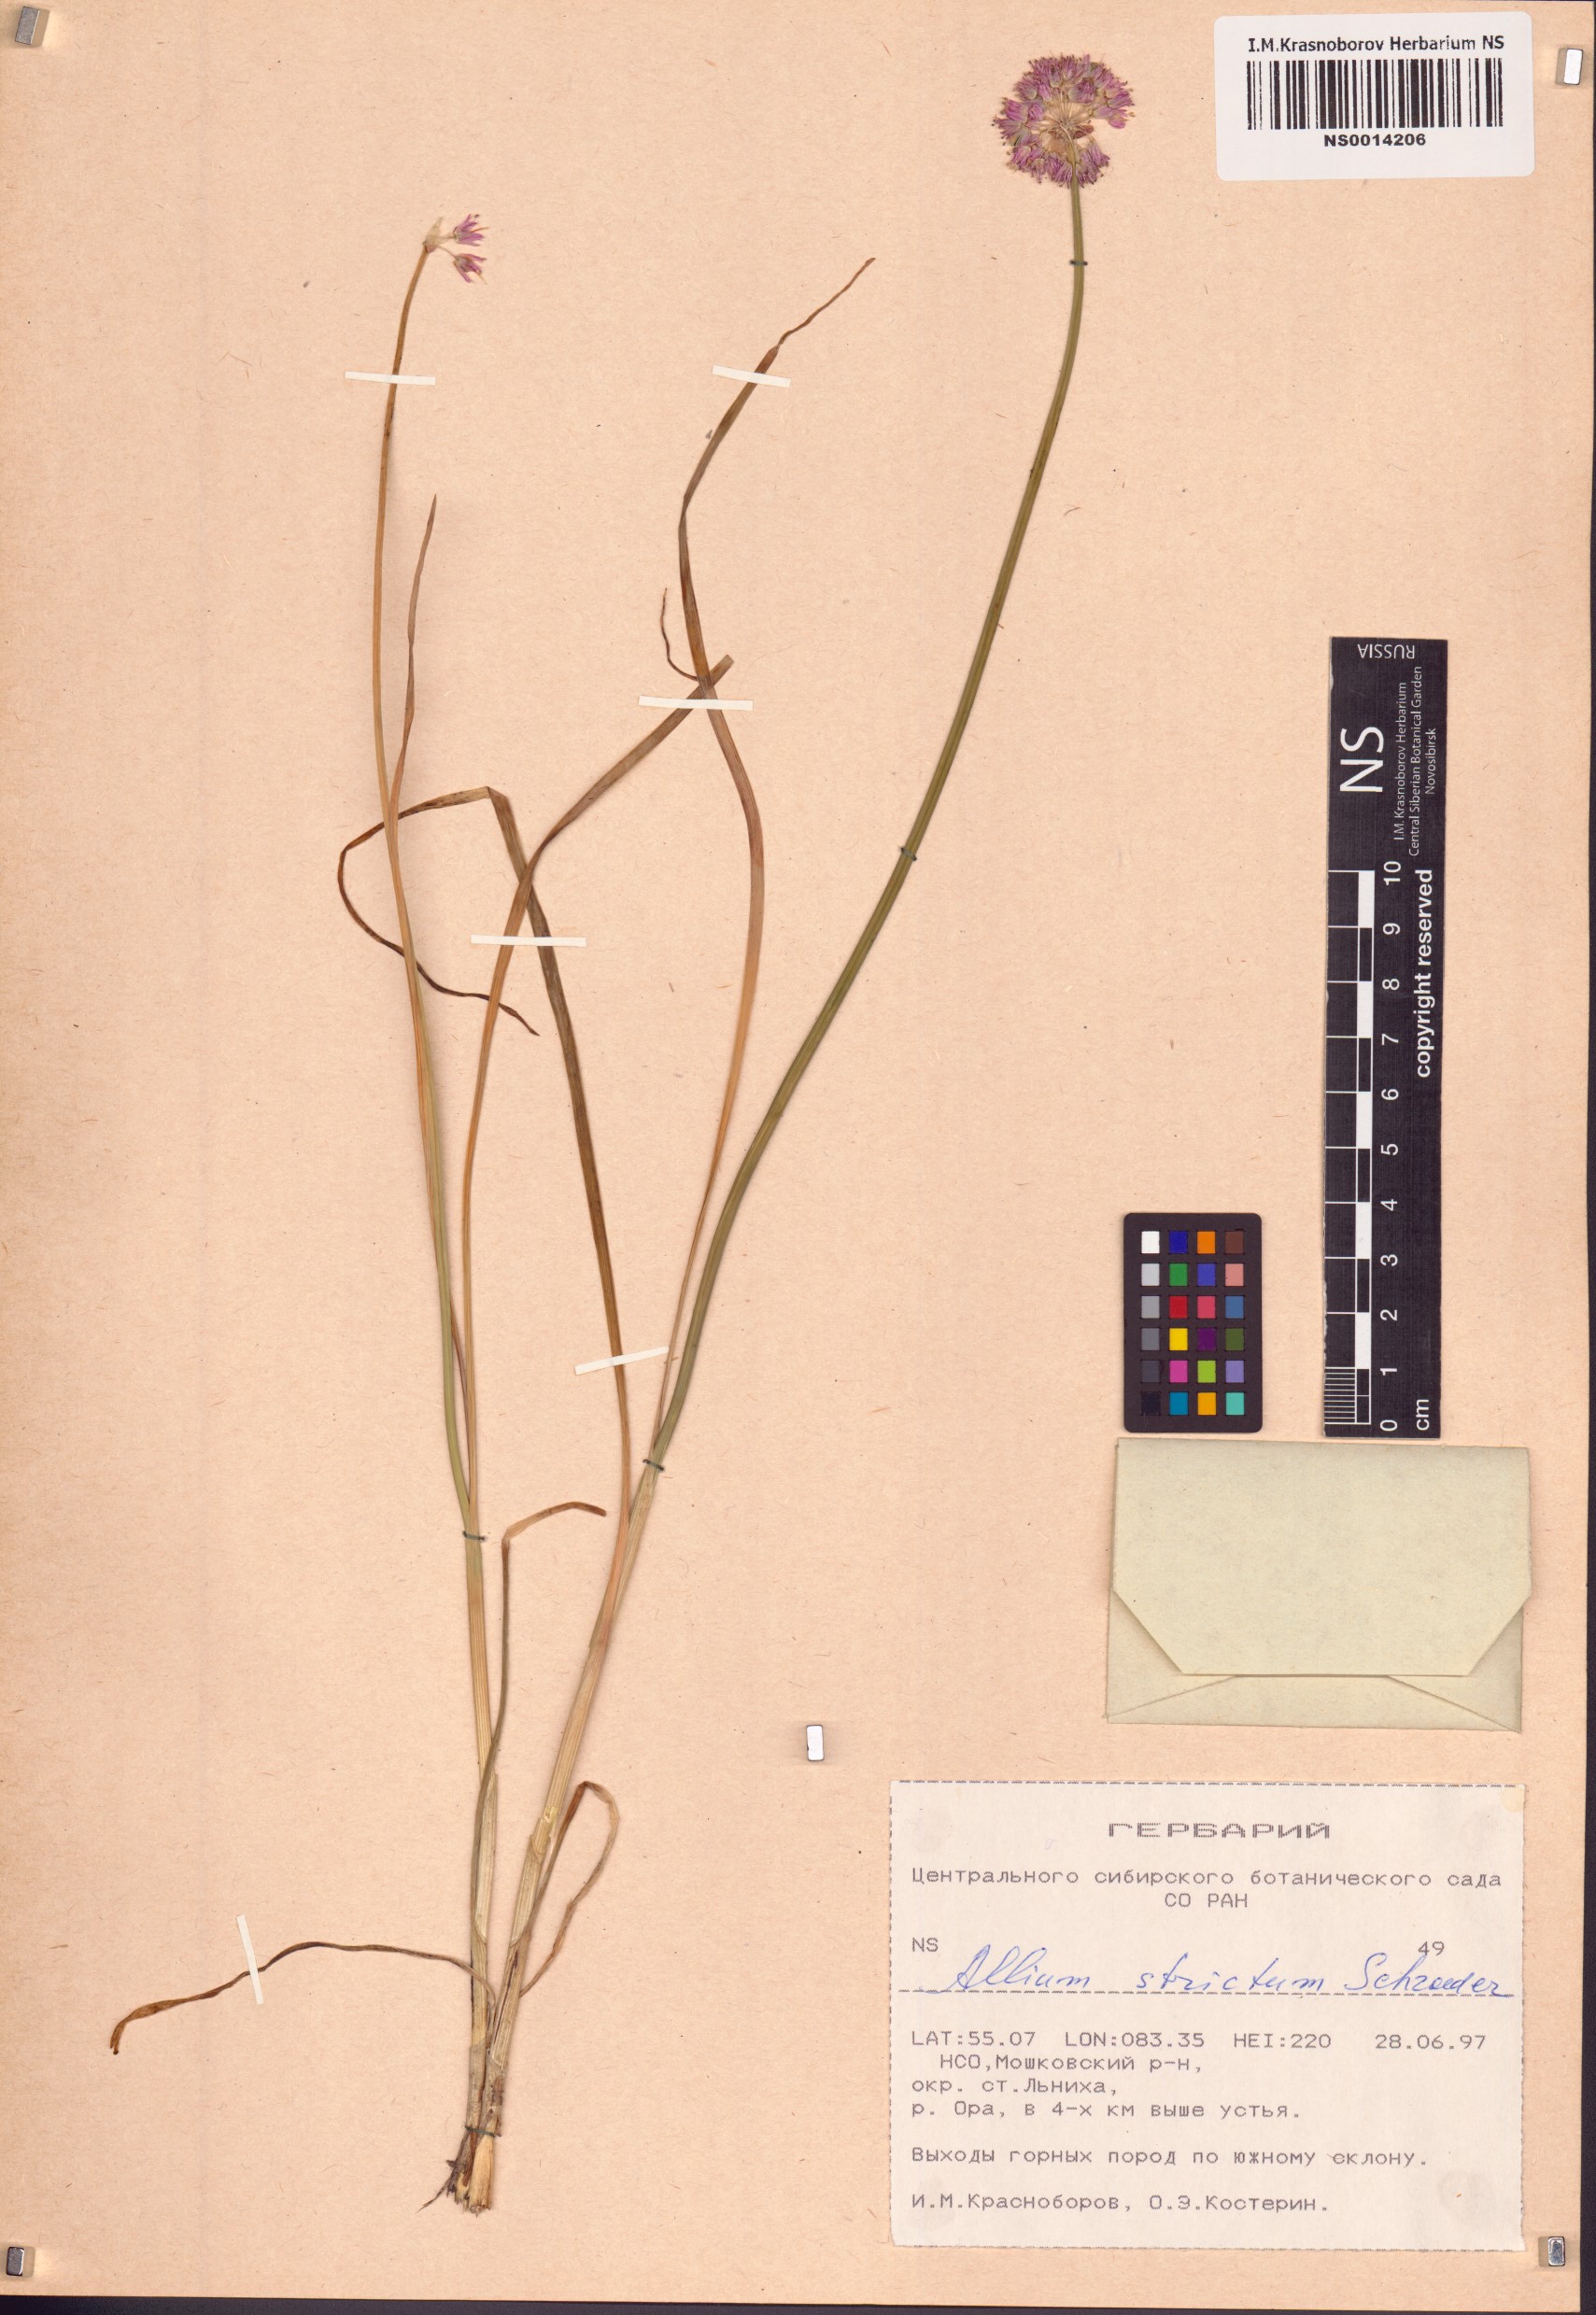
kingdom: Plantae
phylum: Tracheophyta
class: Liliopsida
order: Asparagales
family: Amaryllidaceae
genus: Allium
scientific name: Allium strictum
